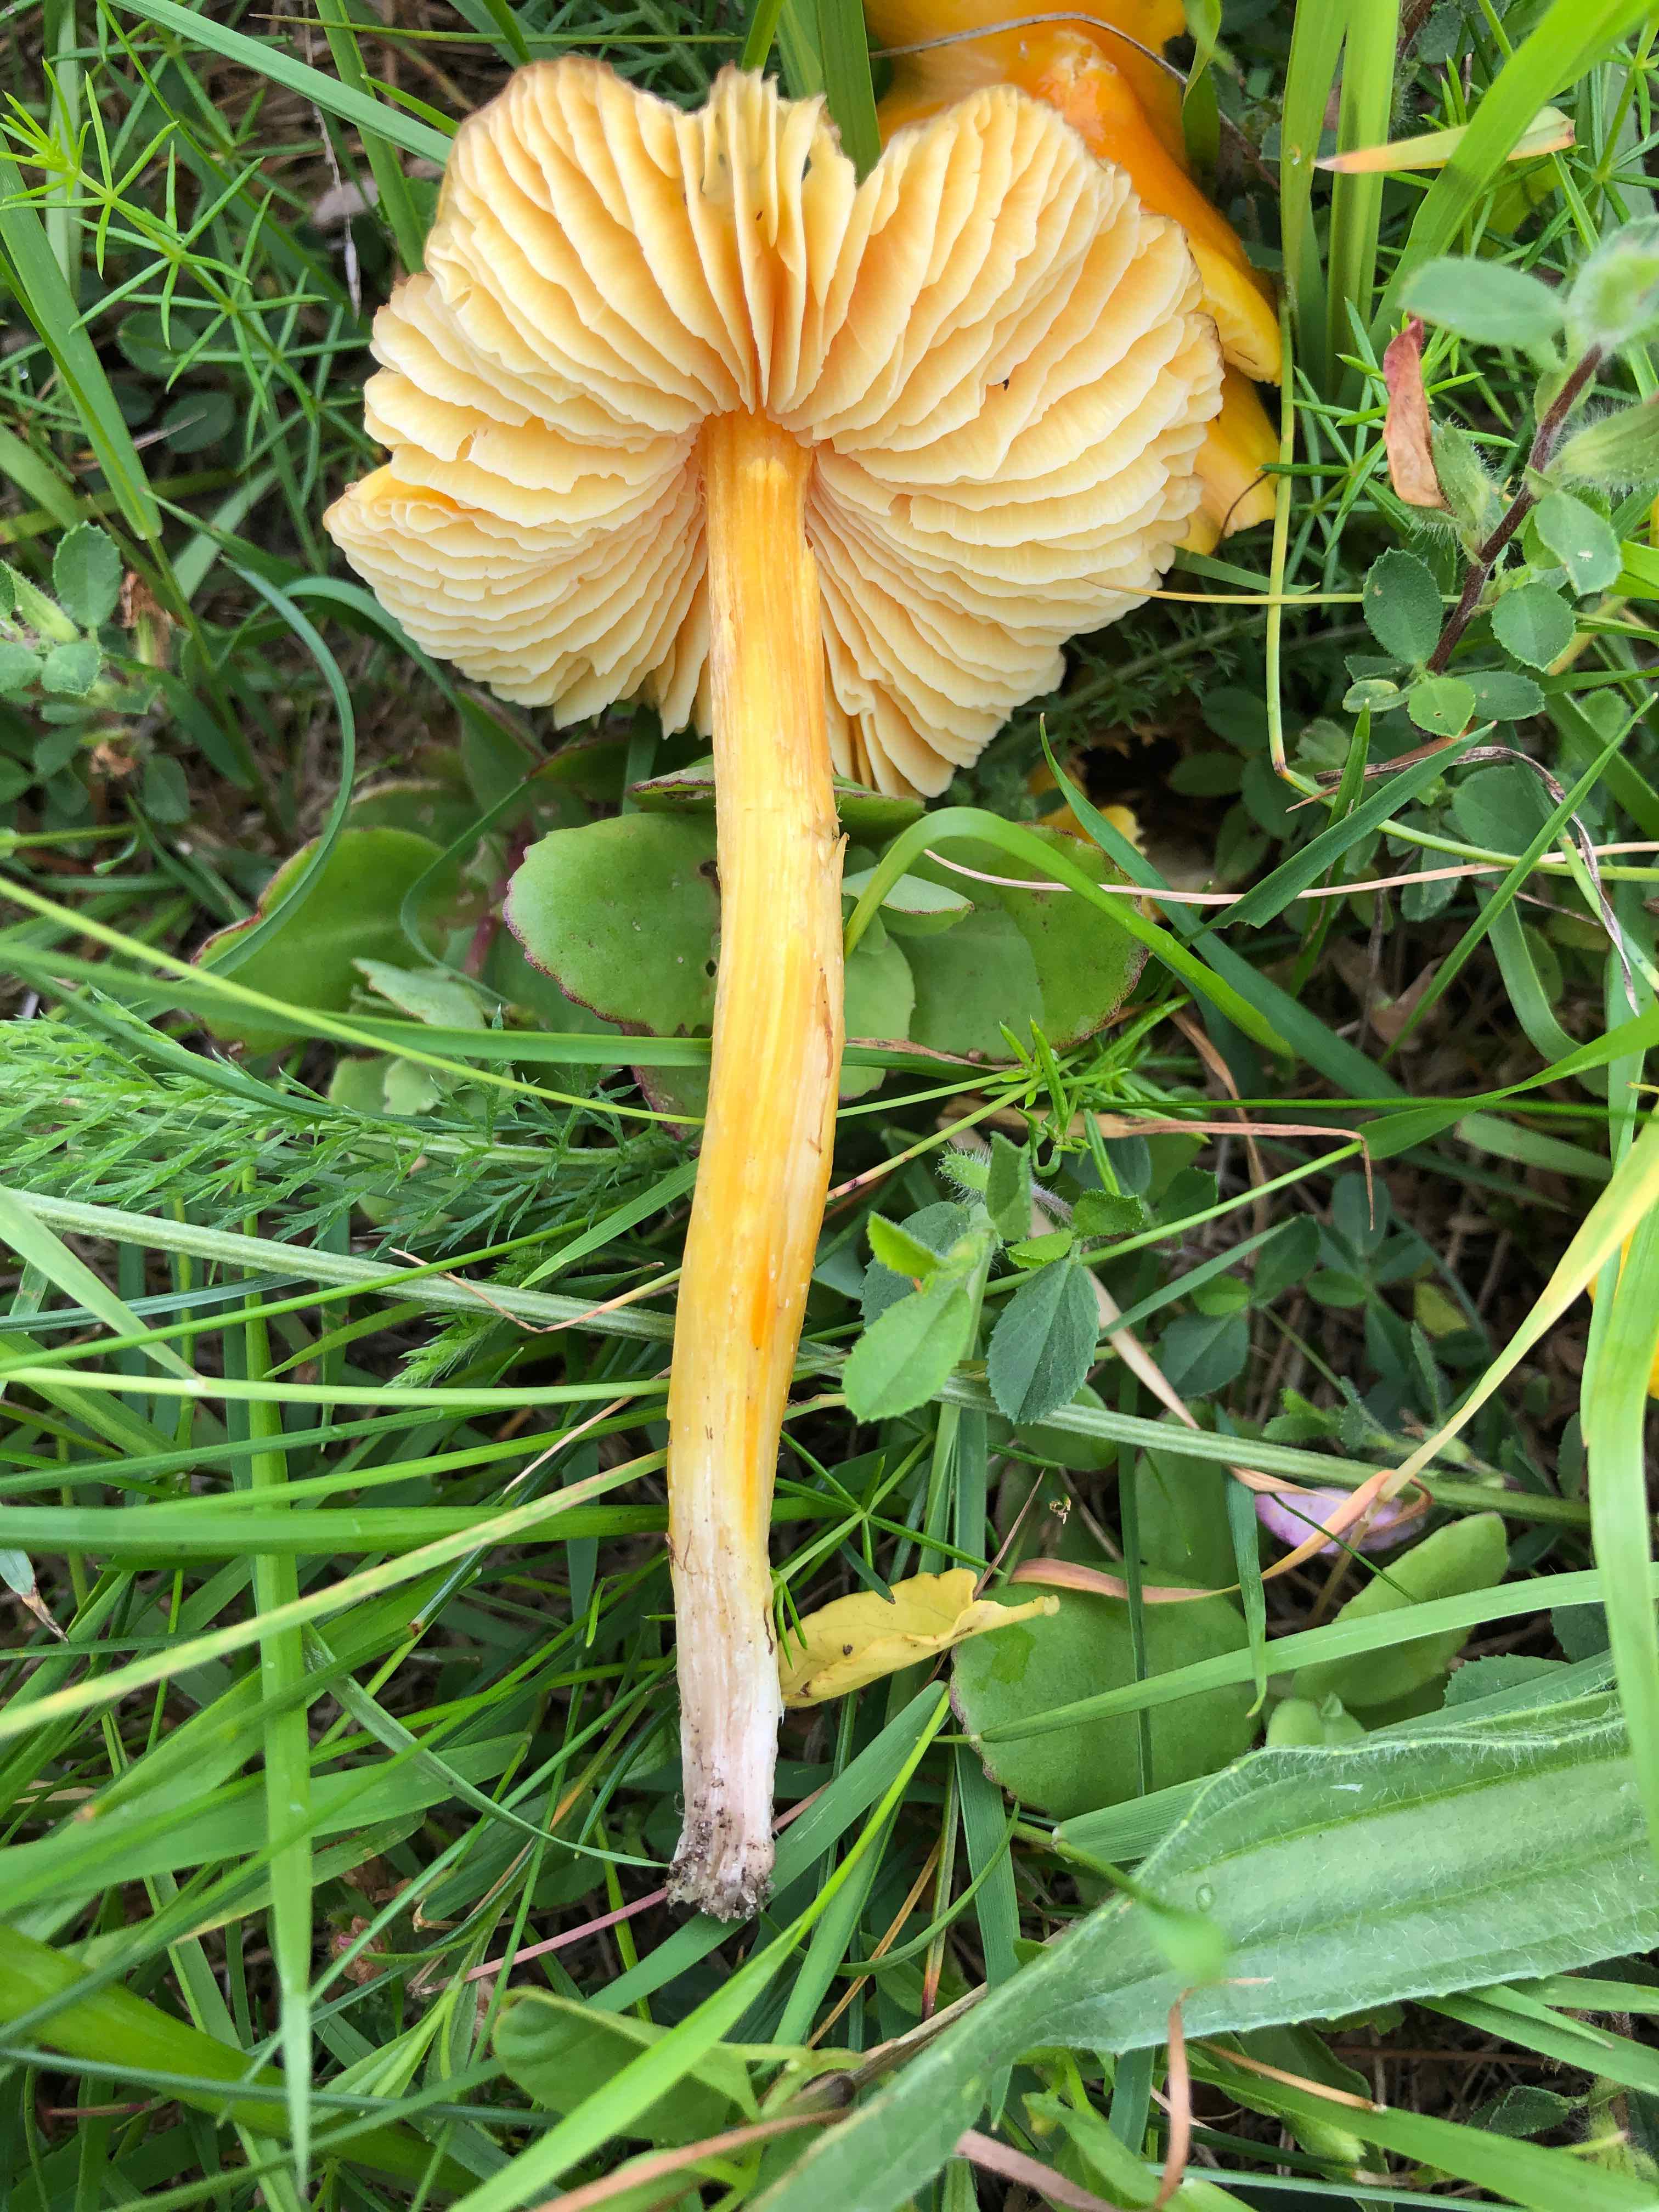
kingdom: Fungi
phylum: Basidiomycota
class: Agaricomycetes
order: Agaricales
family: Hygrophoraceae
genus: Hygrocybe
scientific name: Hygrocybe acutoconica
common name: spidspuklet vokshat
